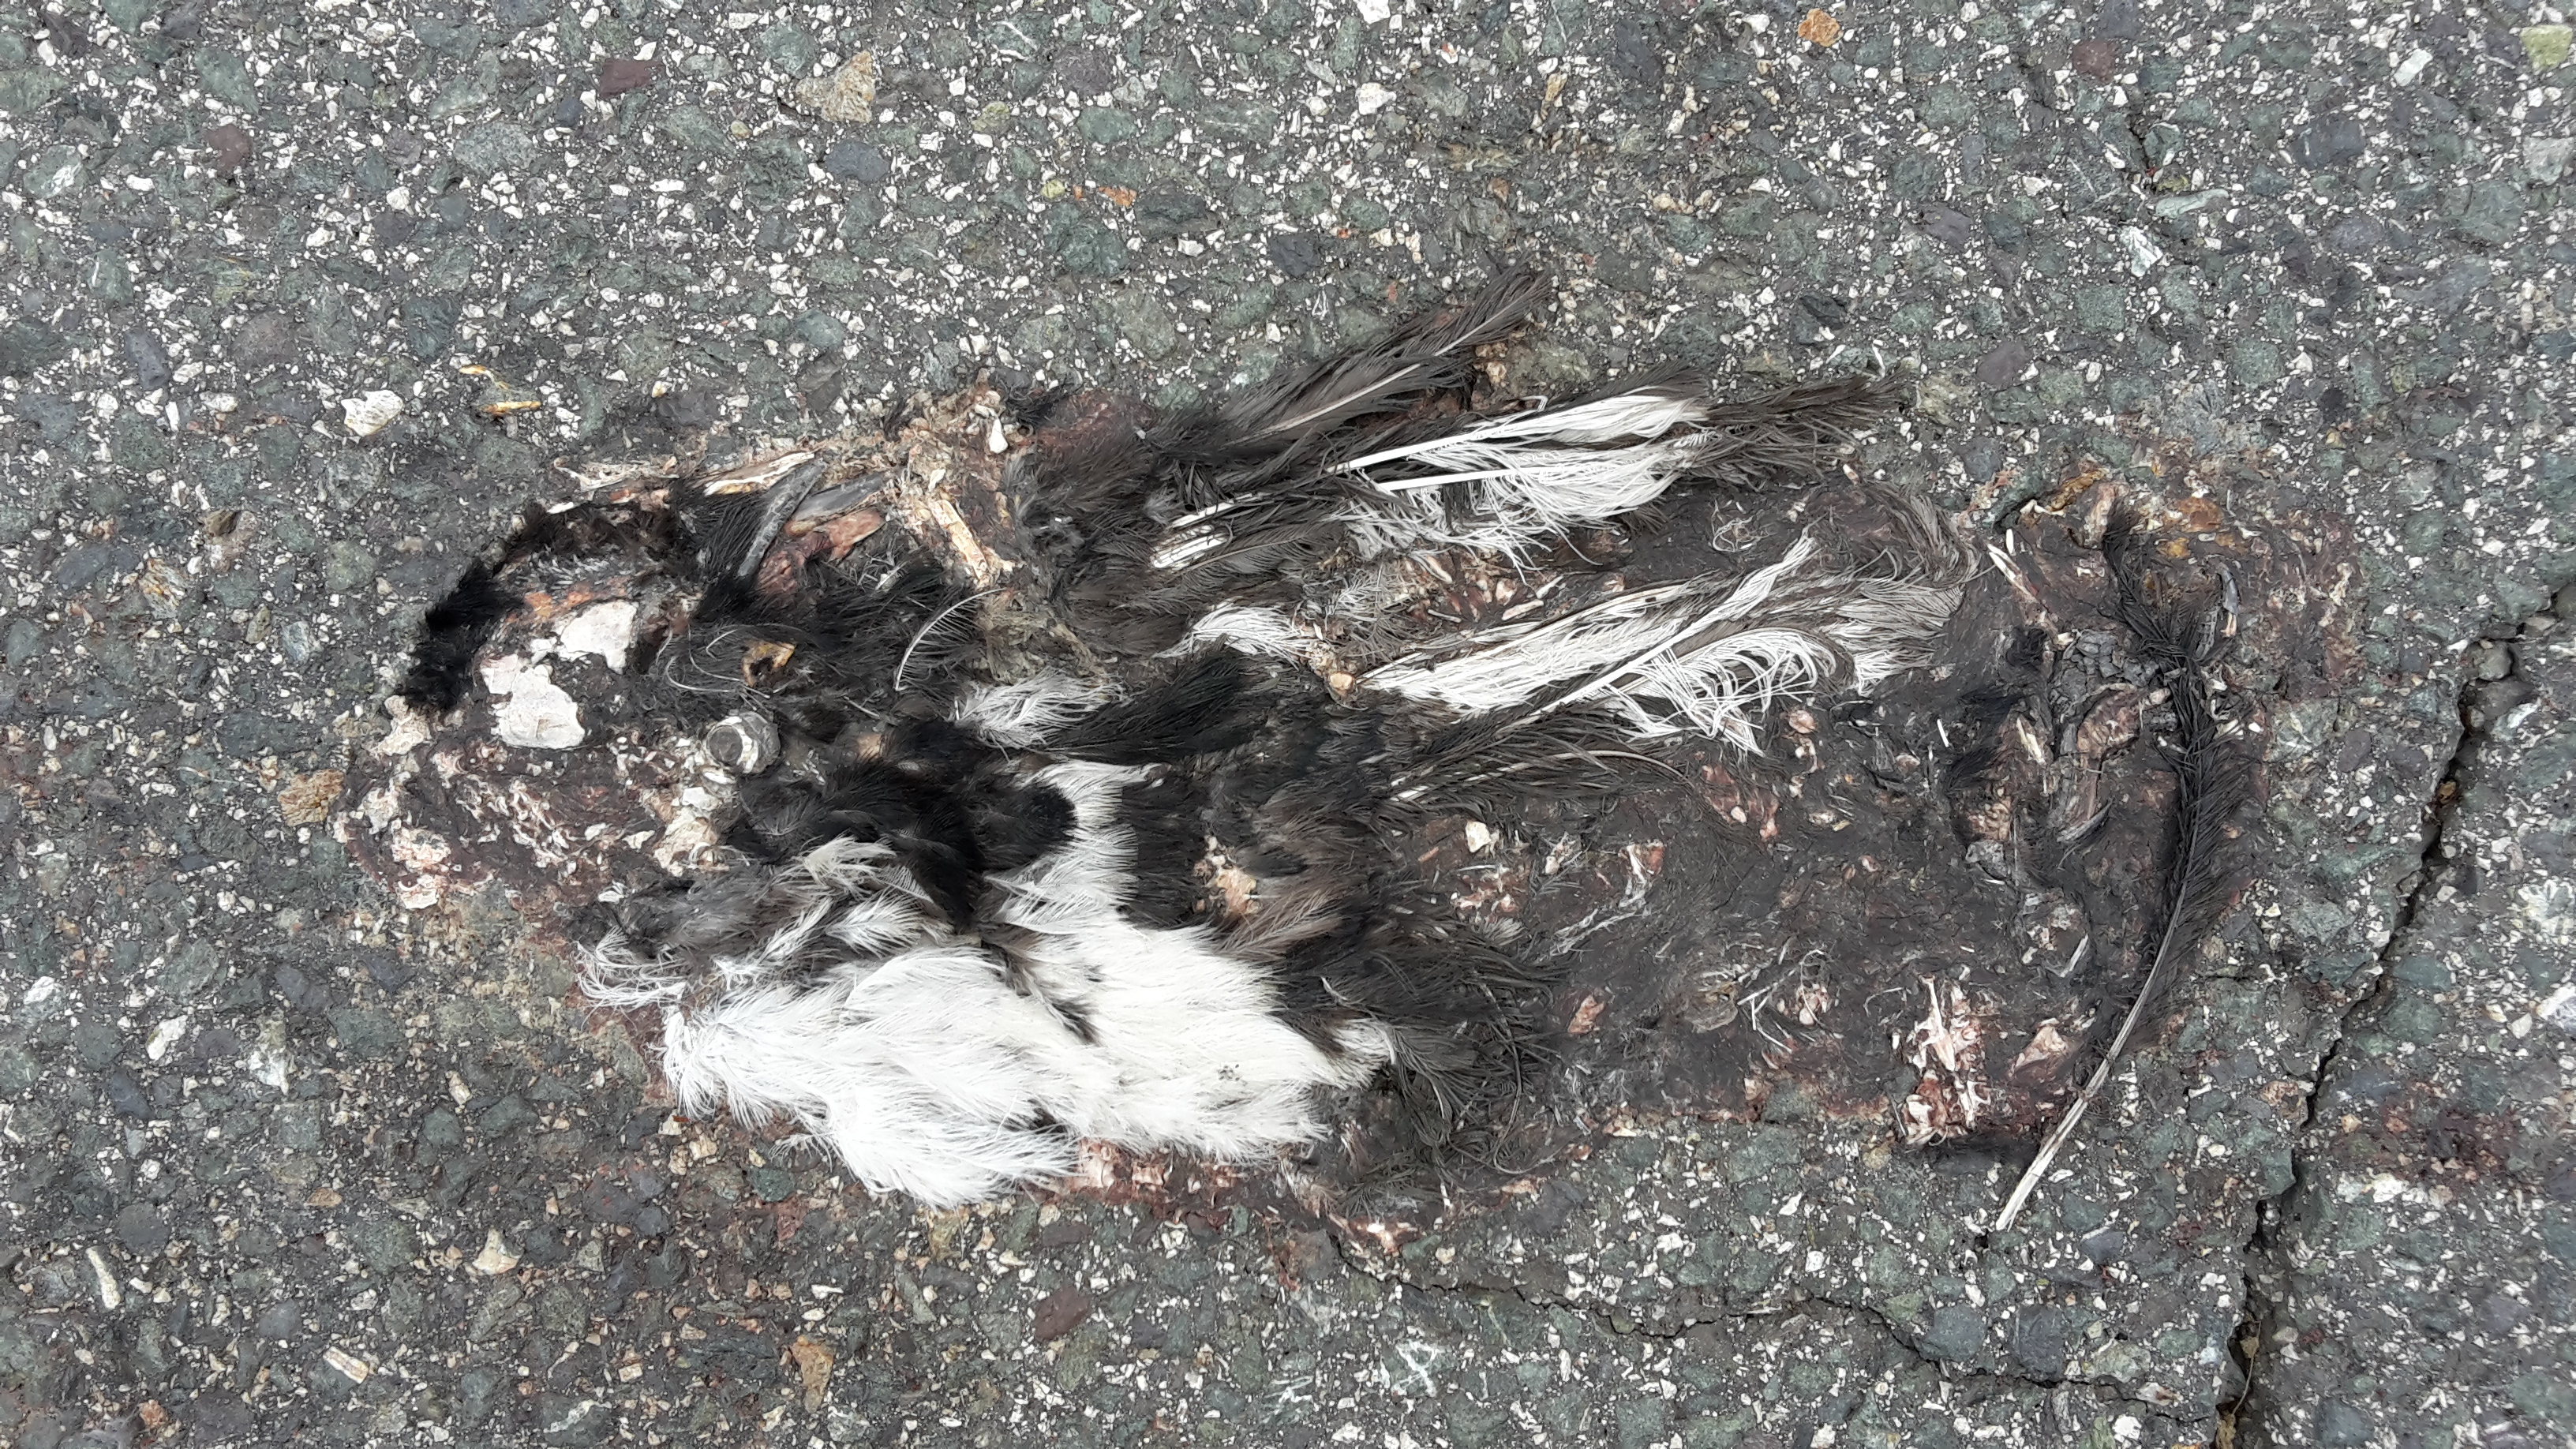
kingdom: Animalia
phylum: Chordata
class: Aves
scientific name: Aves
